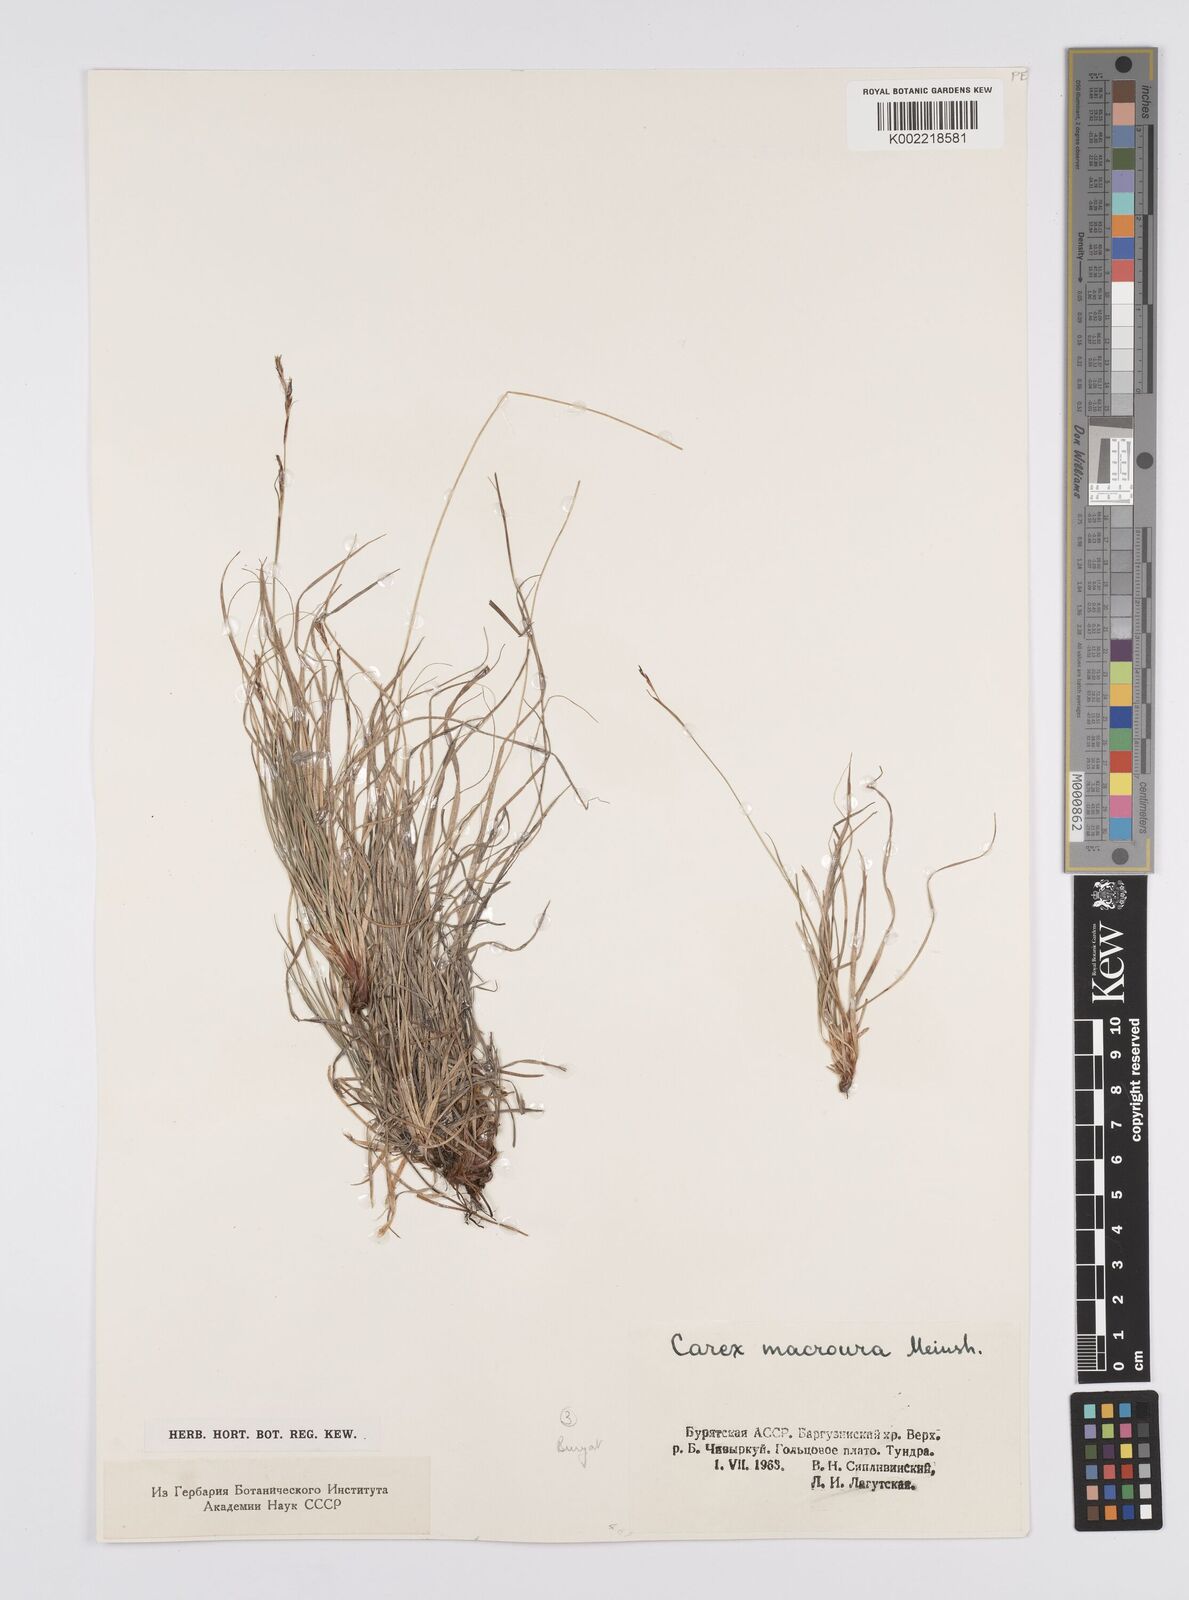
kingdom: Plantae
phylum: Tracheophyta
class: Liliopsida
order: Poales
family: Cyperaceae
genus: Carex
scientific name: Carex pediformis
